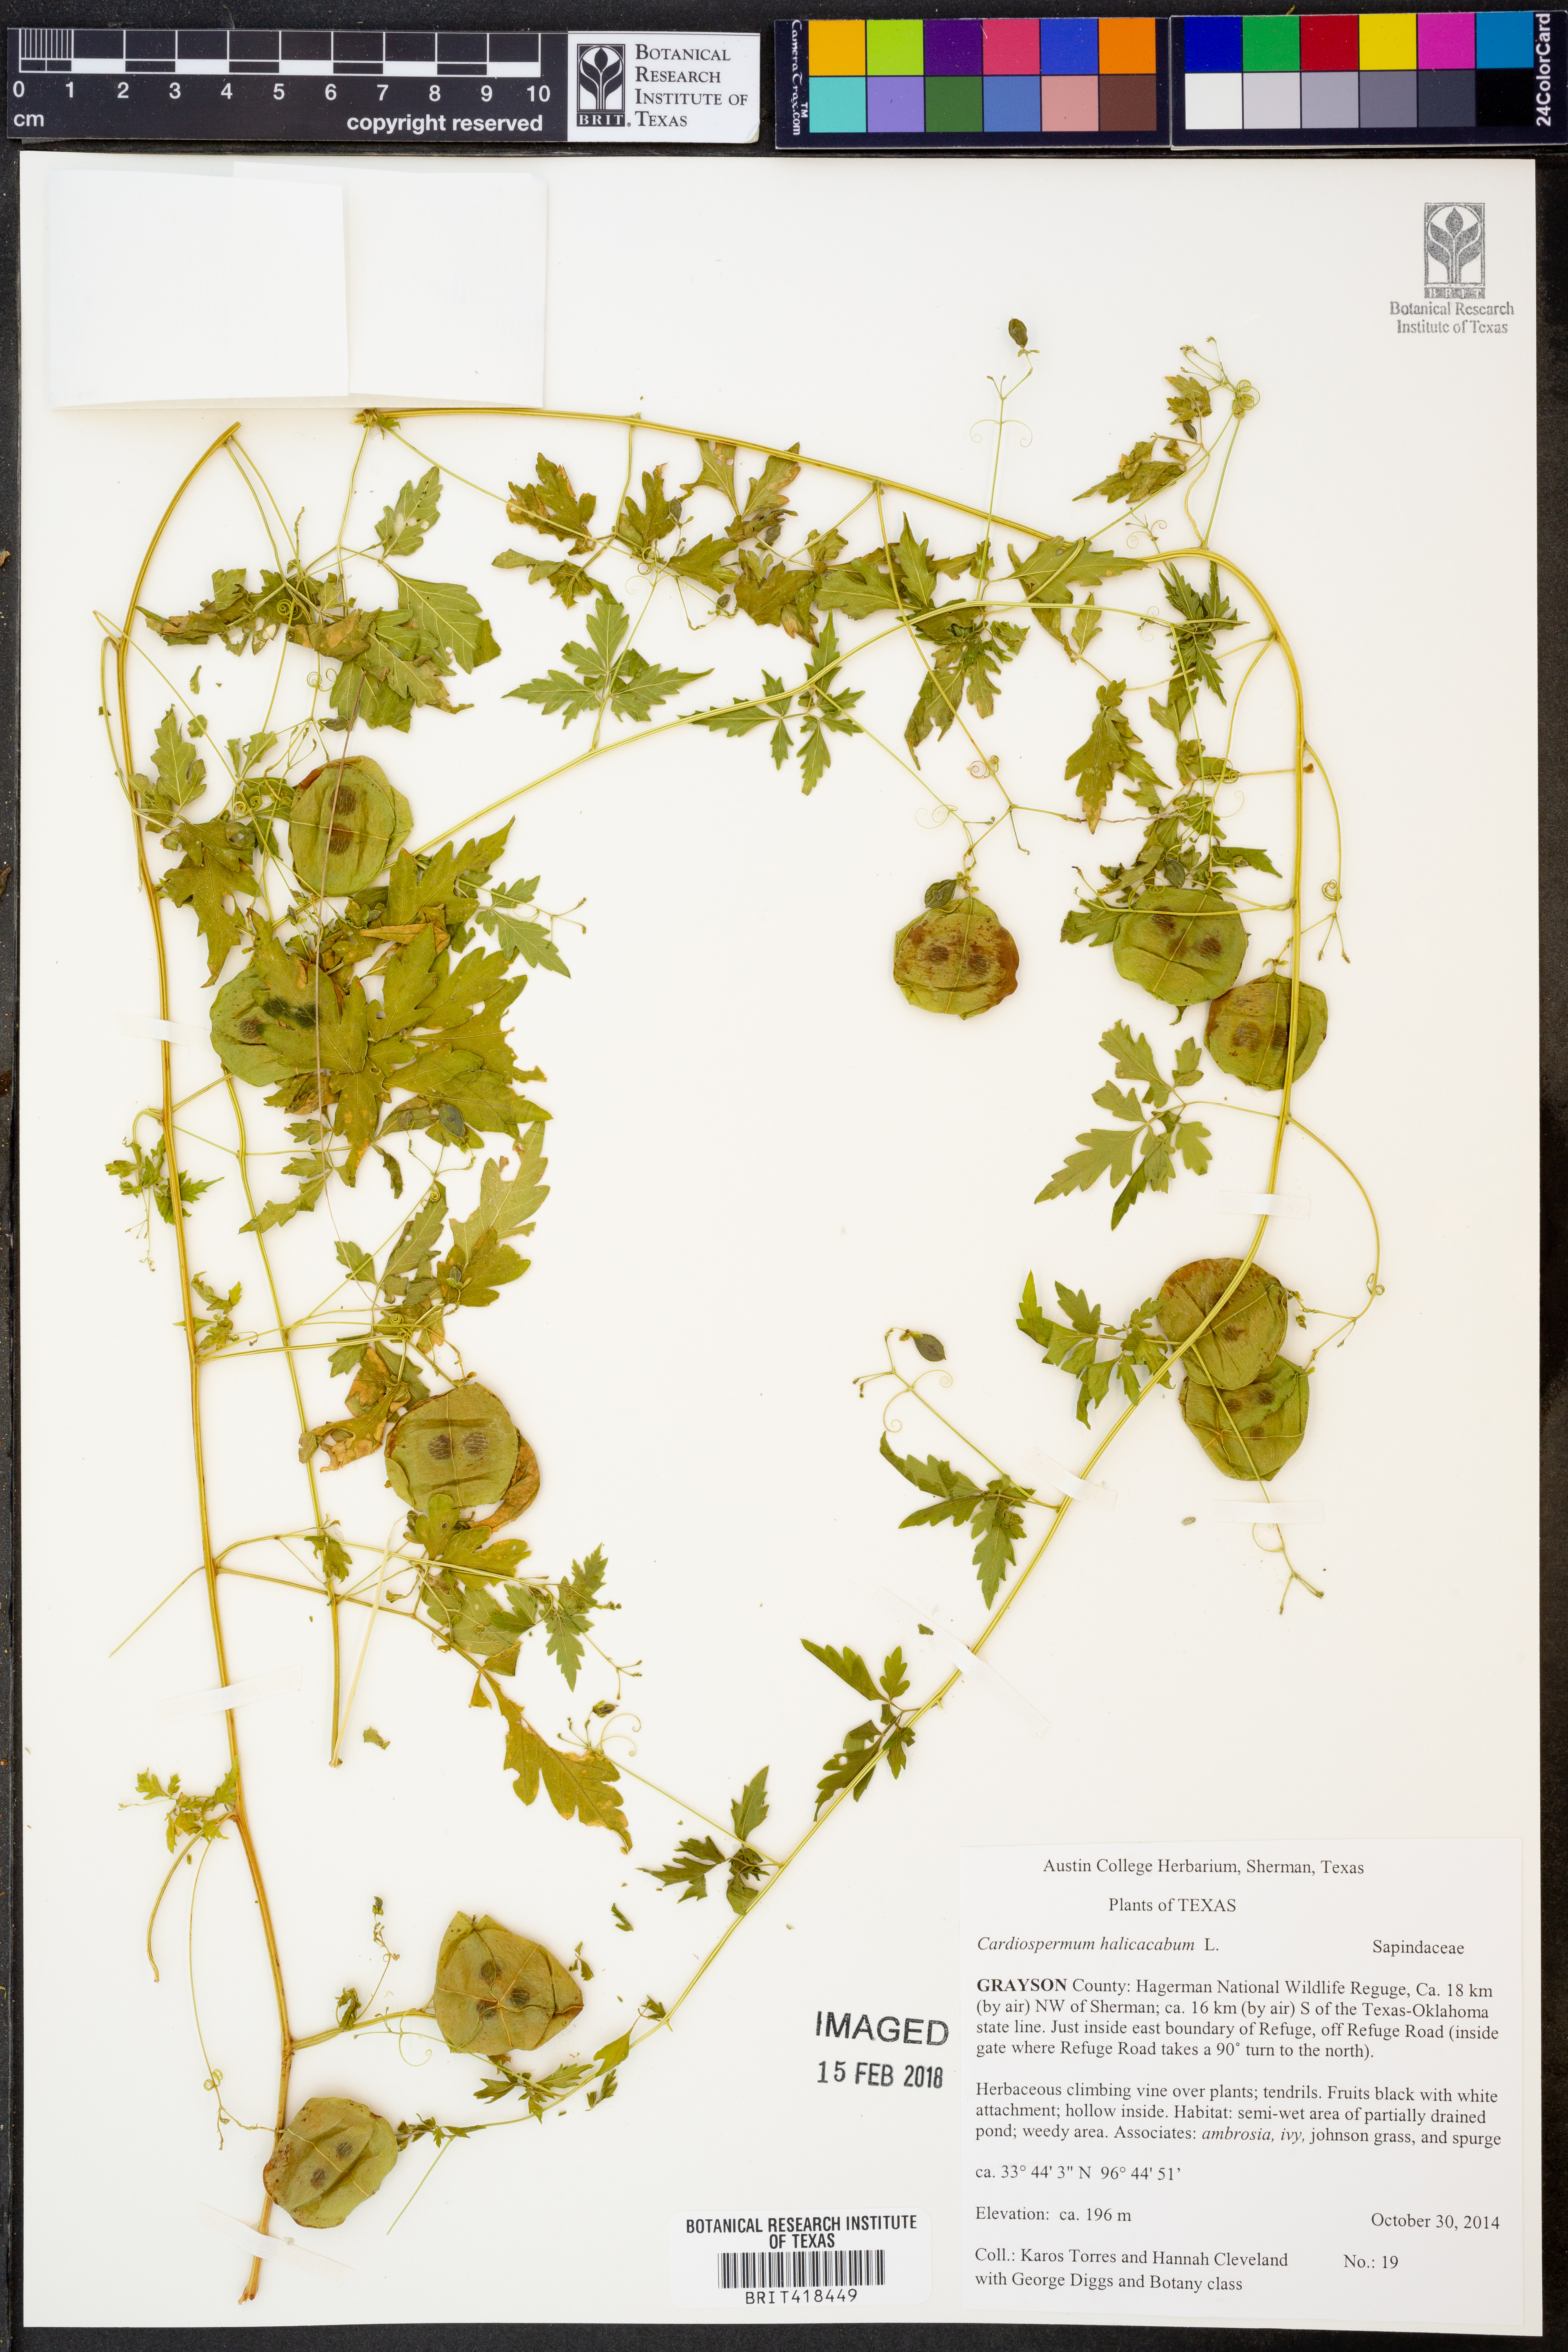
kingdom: Plantae
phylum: Tracheophyta
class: Magnoliopsida
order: Sapindales
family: Sapindaceae
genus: Cardiospermum
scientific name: Cardiospermum halicacabum
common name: Balloon vine
